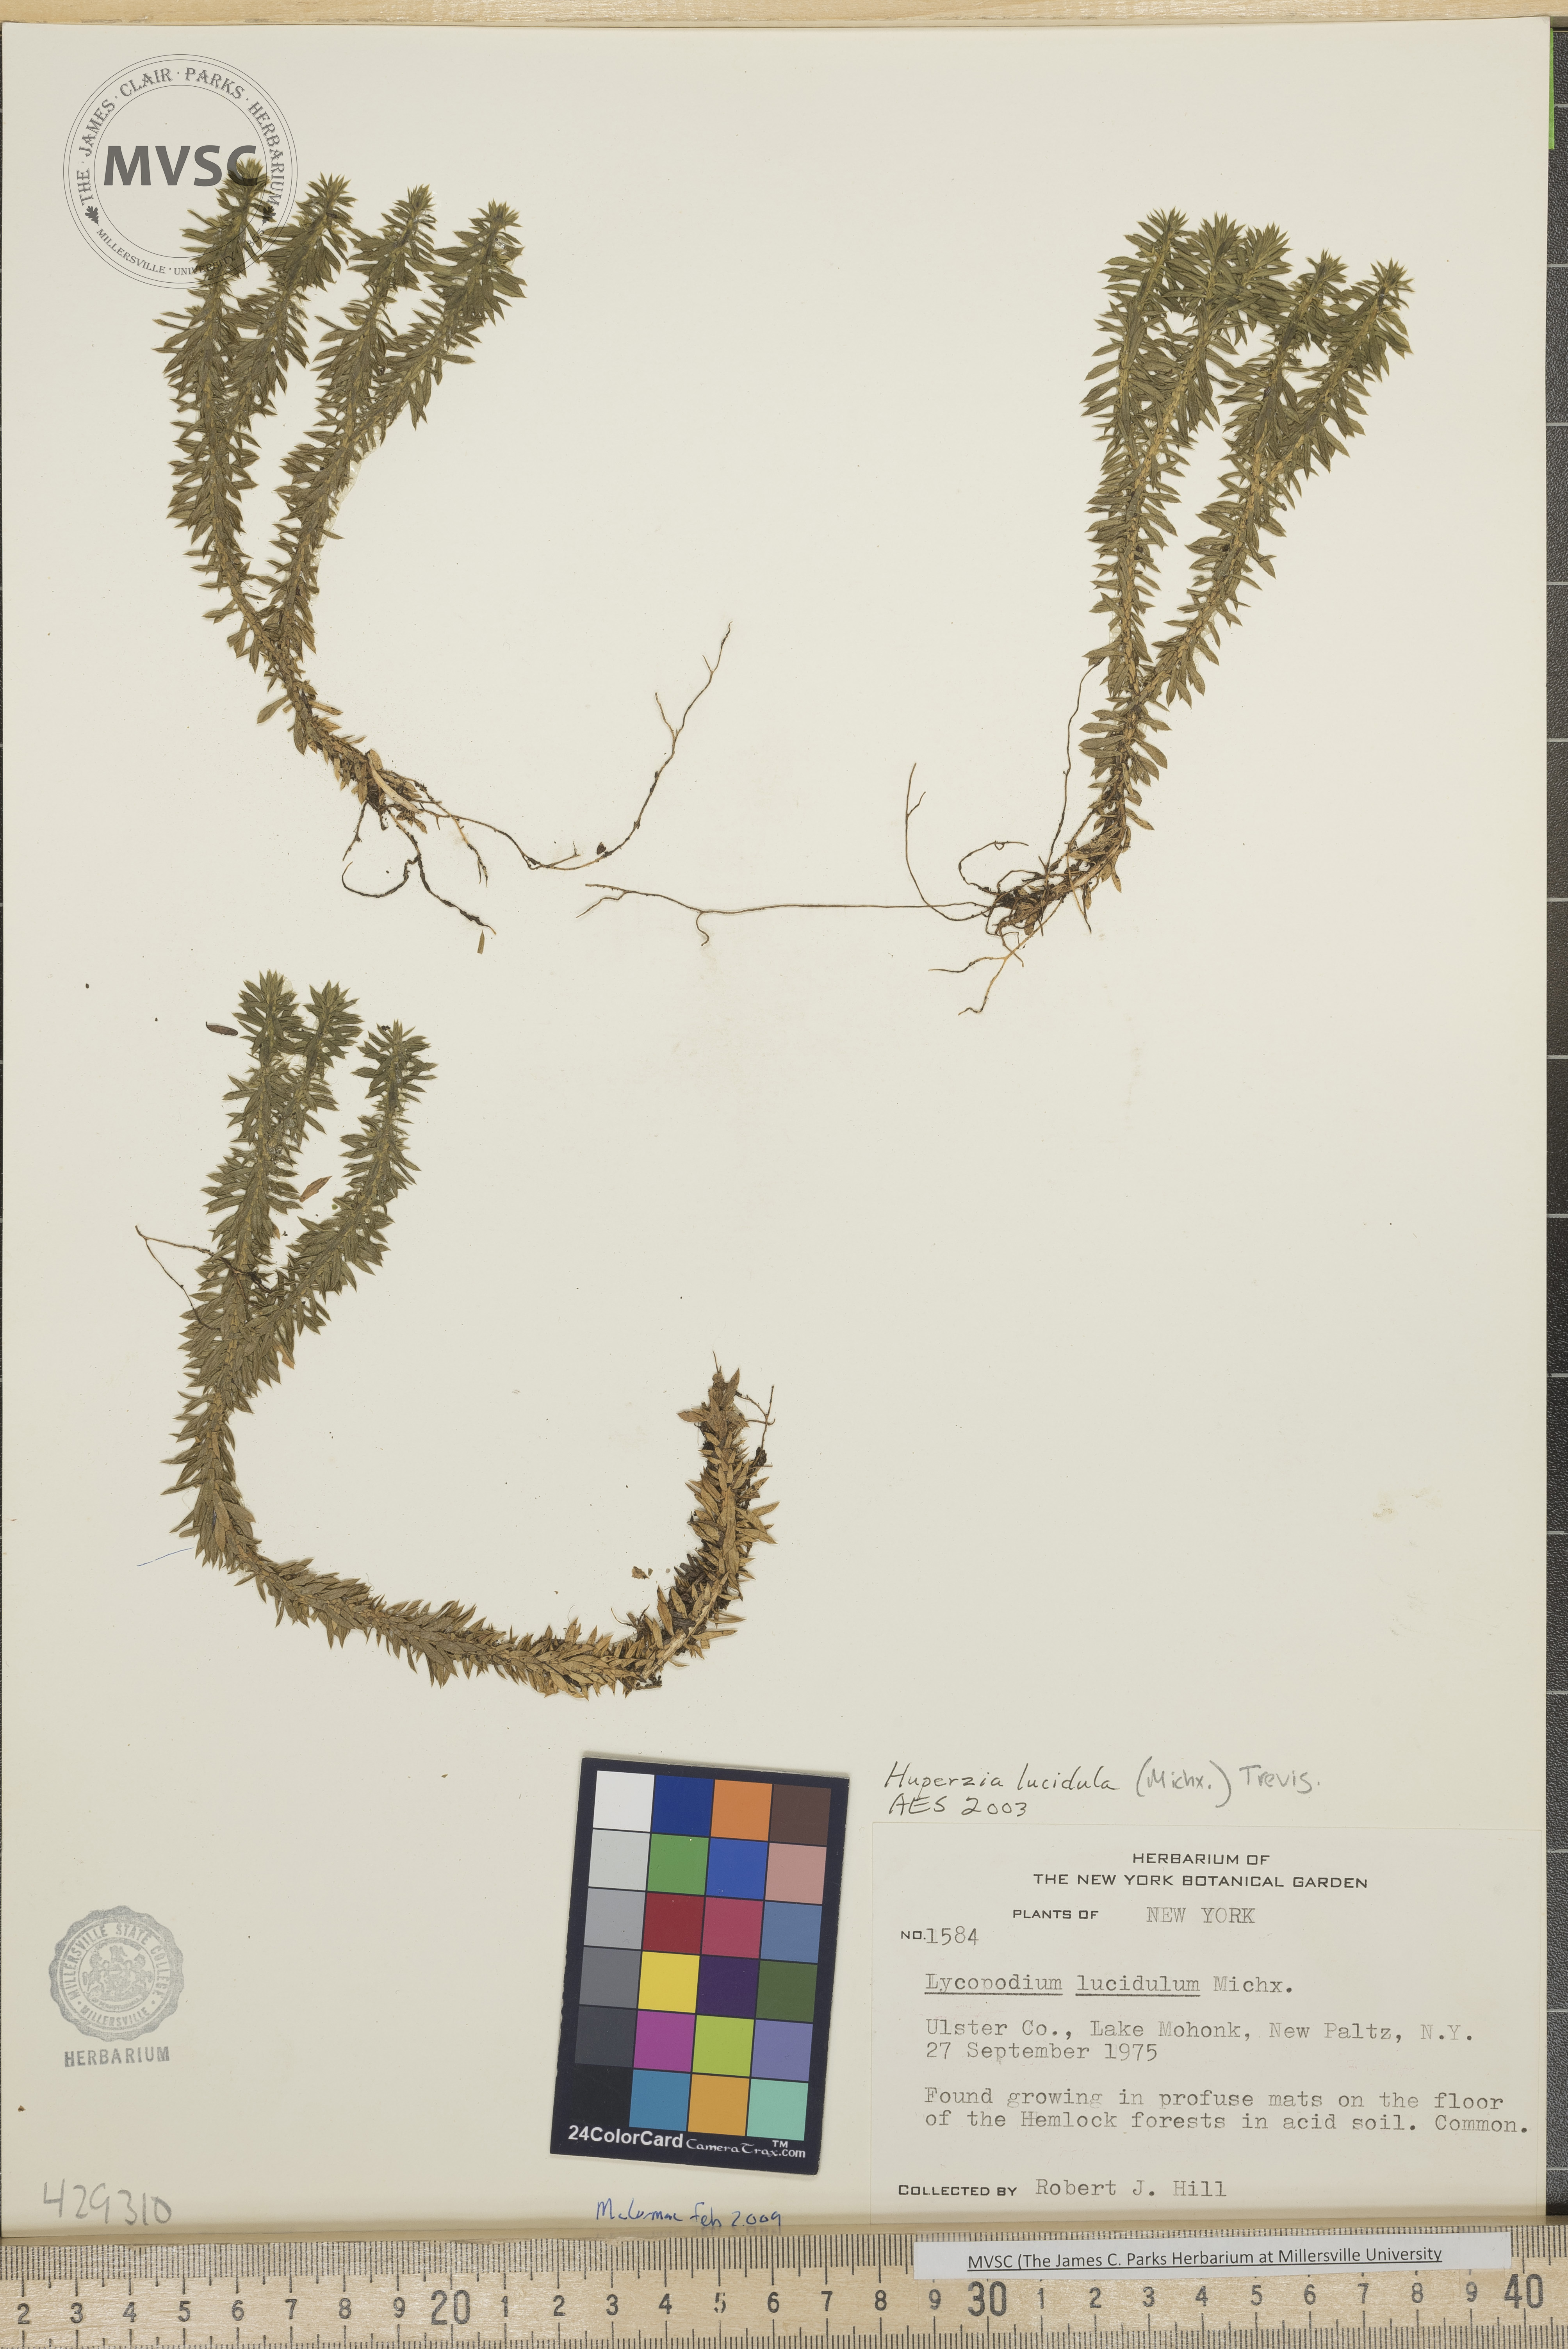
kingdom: Plantae
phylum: Tracheophyta
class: Lycopodiopsida
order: Lycopodiales
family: Lycopodiaceae
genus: Huperzia
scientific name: Huperzia lucidula
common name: Shining clubmoss
